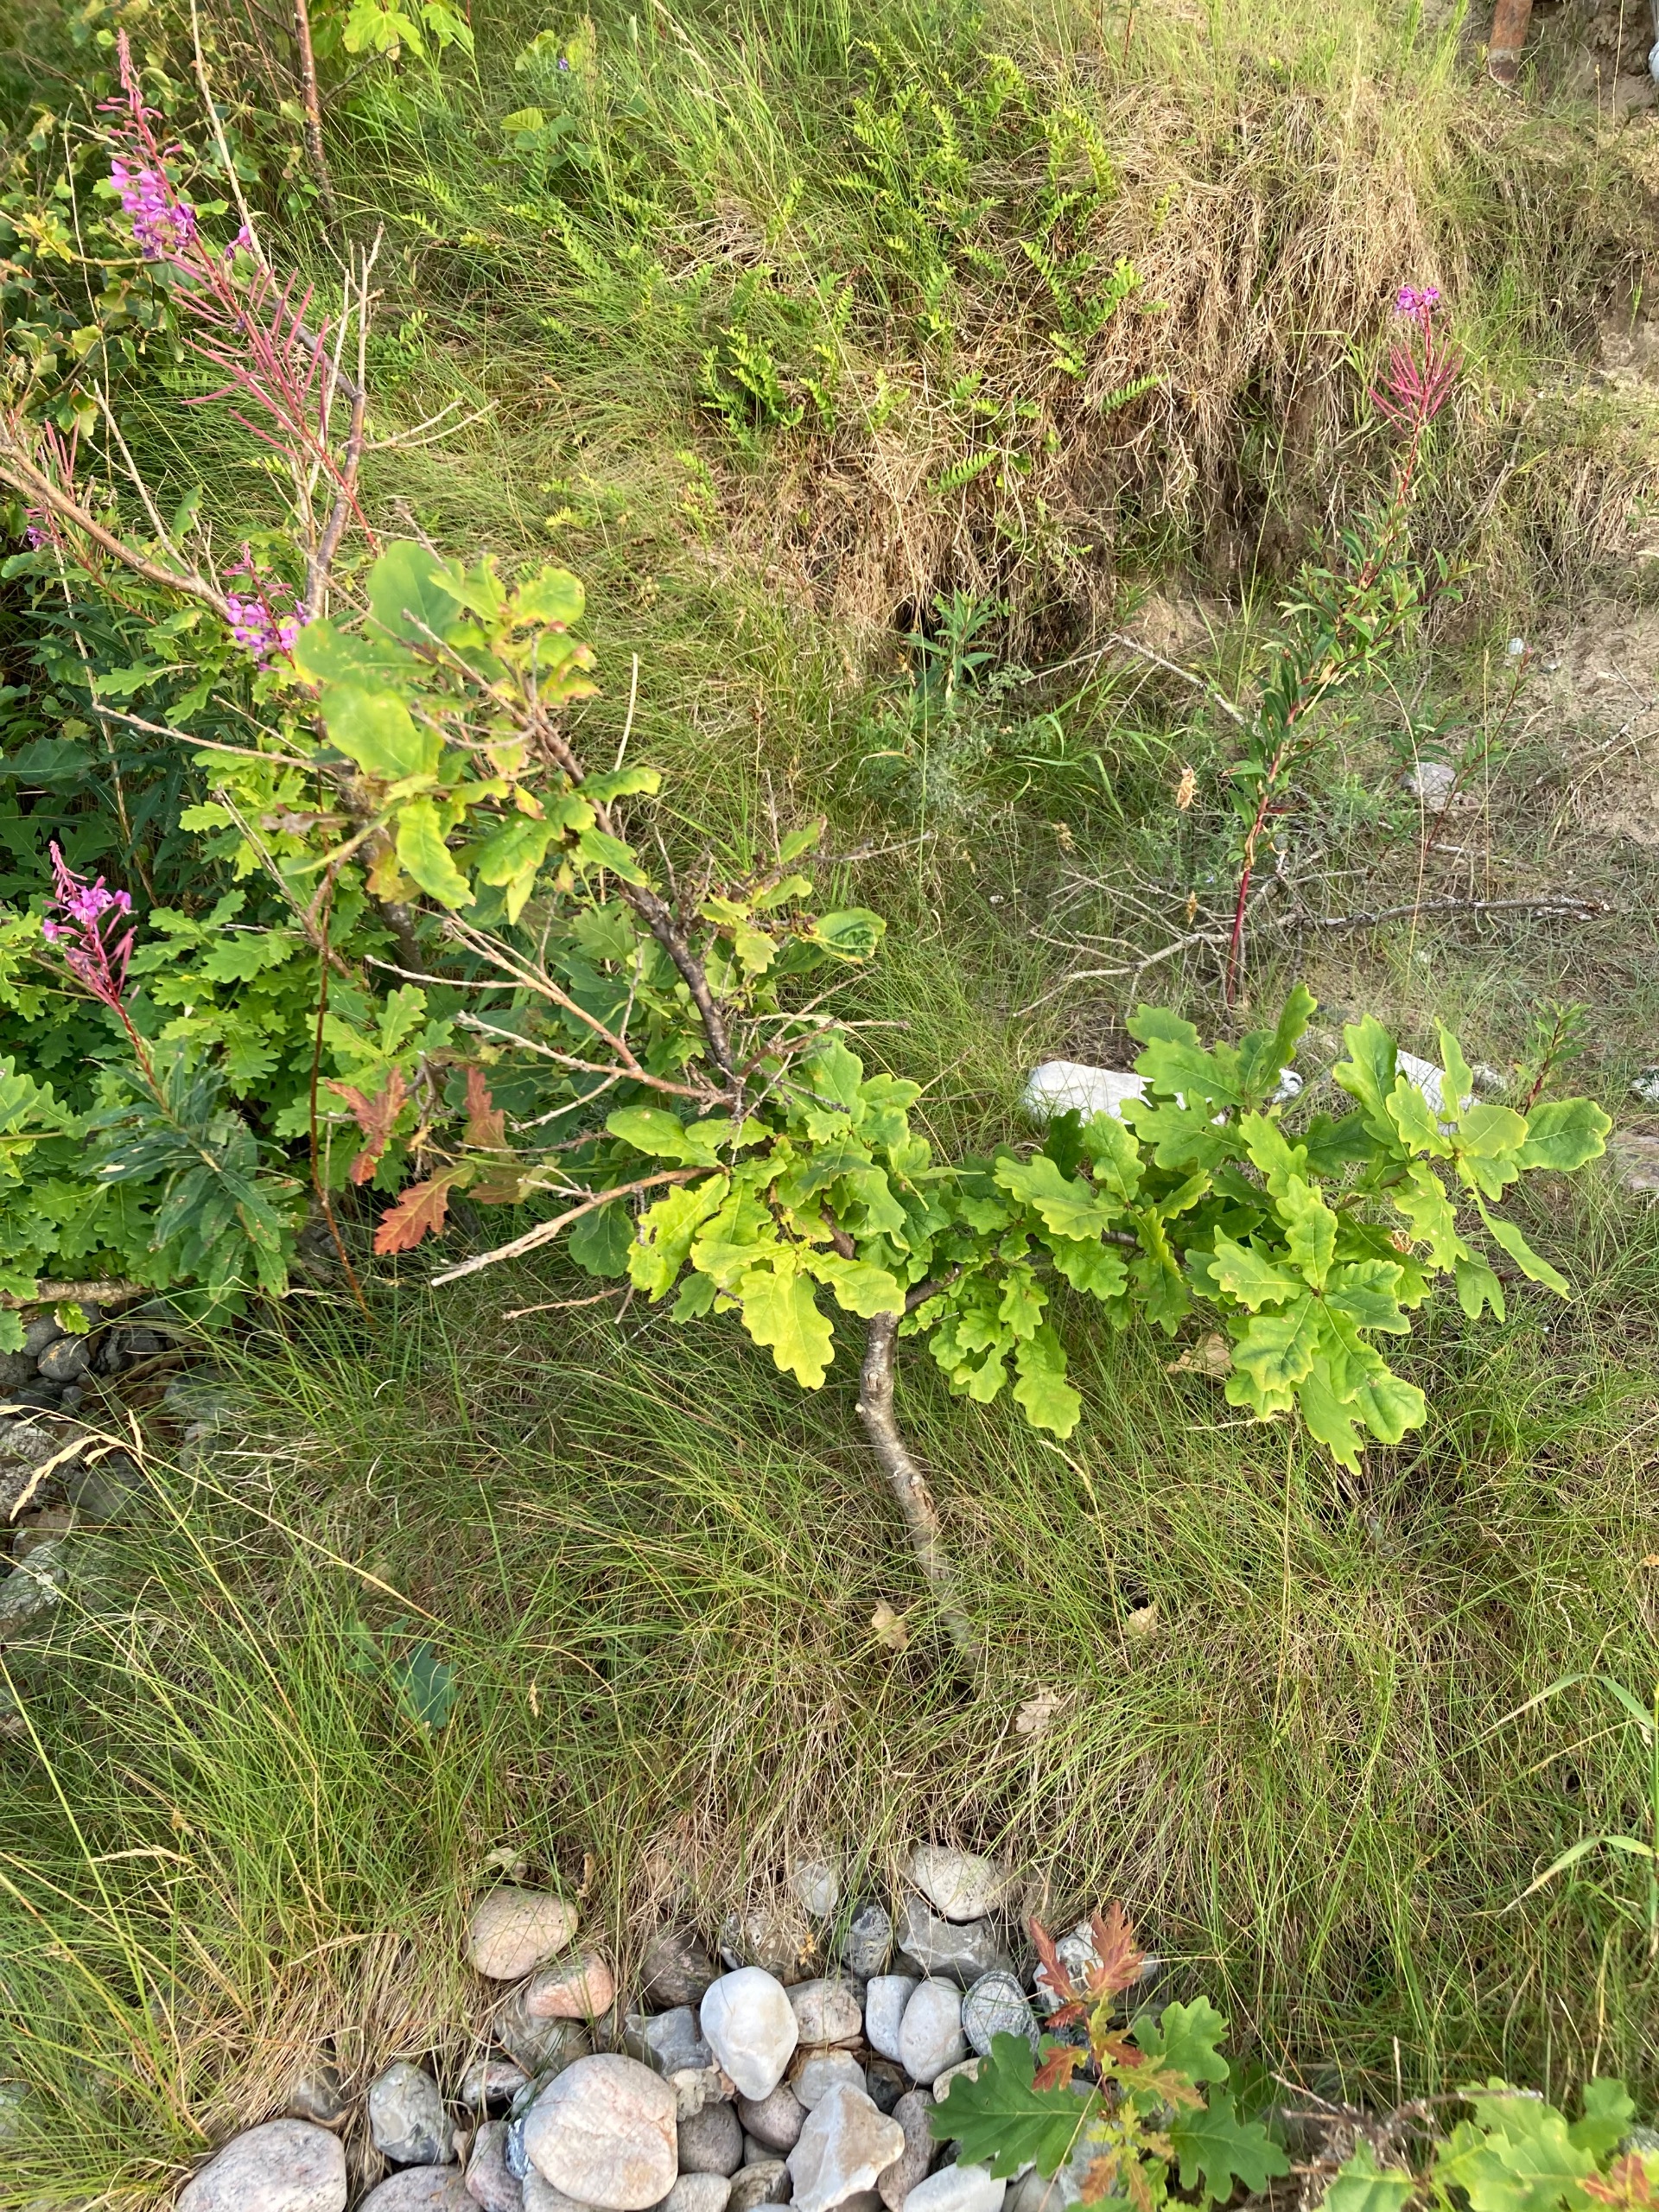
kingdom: Plantae
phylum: Tracheophyta
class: Magnoliopsida
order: Fagales
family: Fagaceae
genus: Quercus
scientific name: Quercus robur
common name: Stilk-eg/almindelig eg
